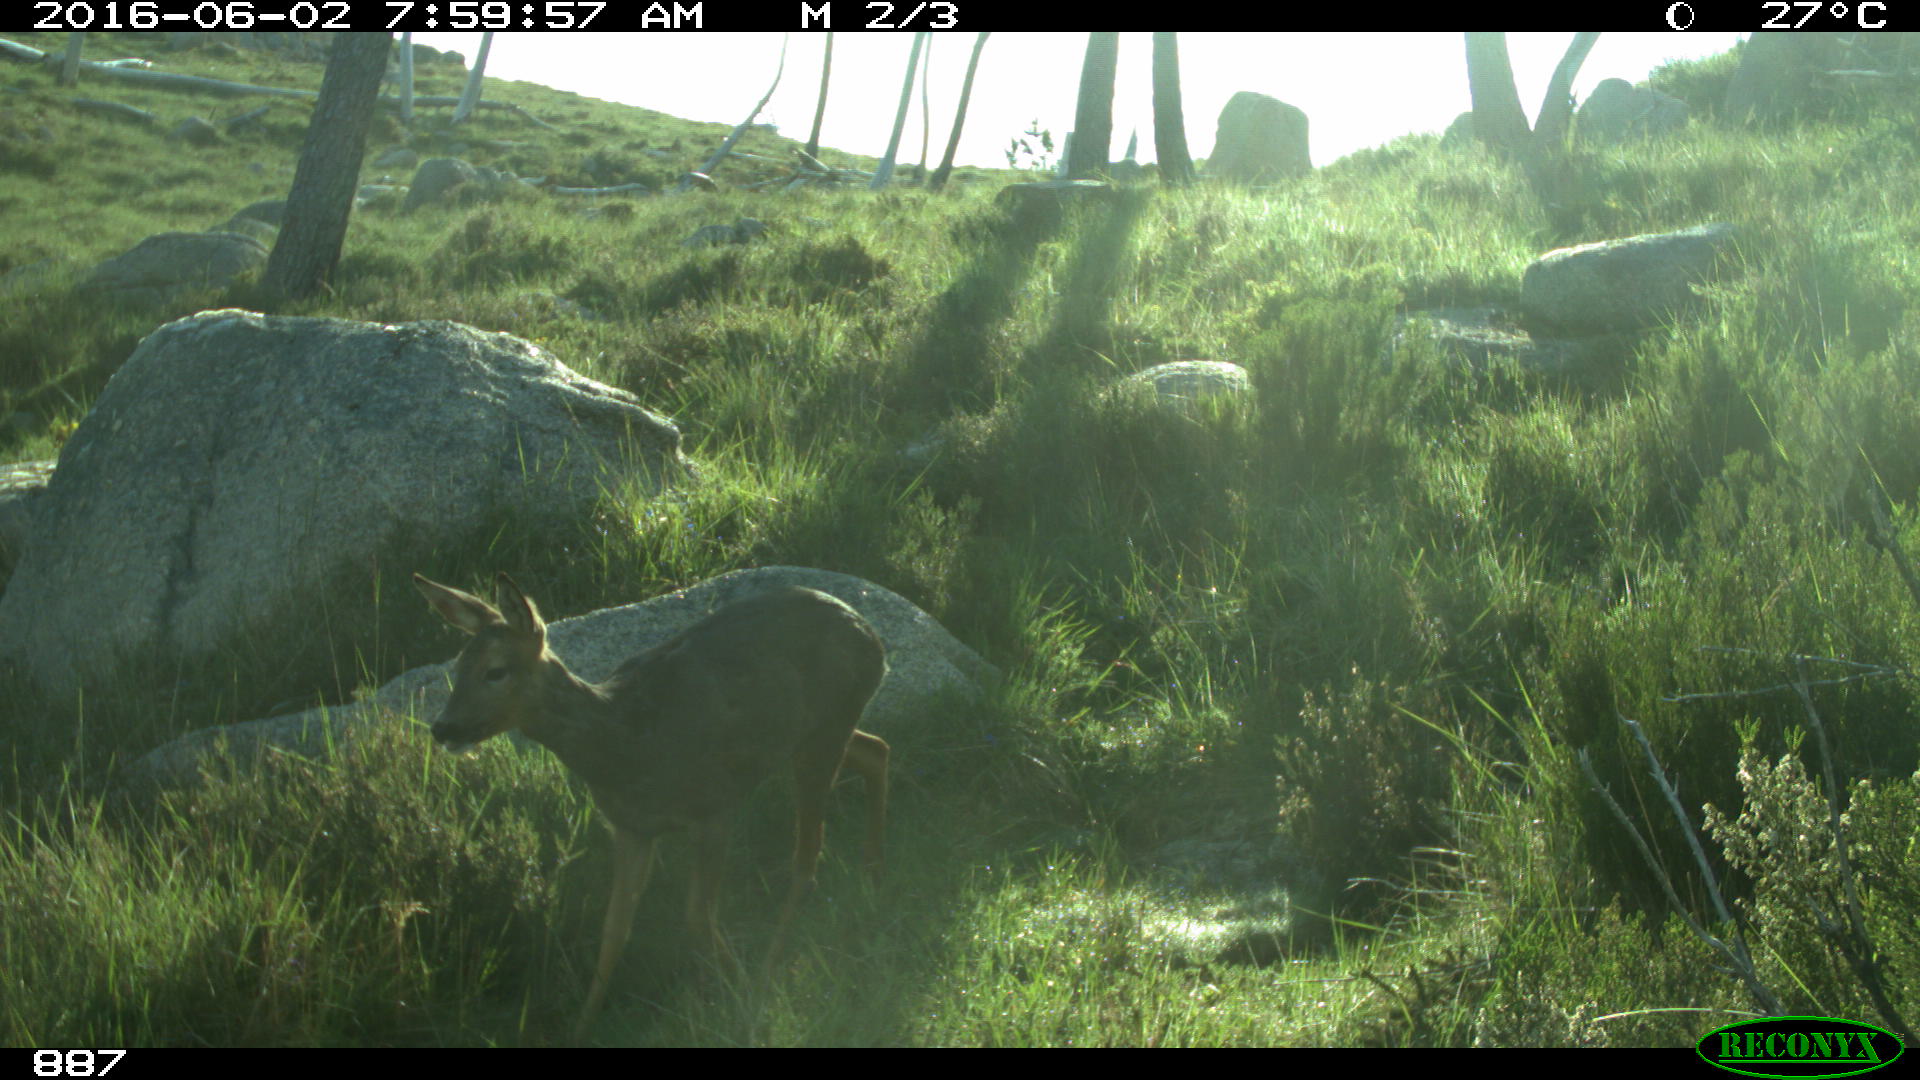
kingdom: Animalia
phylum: Chordata
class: Mammalia
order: Artiodactyla
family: Cervidae
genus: Capreolus
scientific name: Capreolus capreolus
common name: Western roe deer
